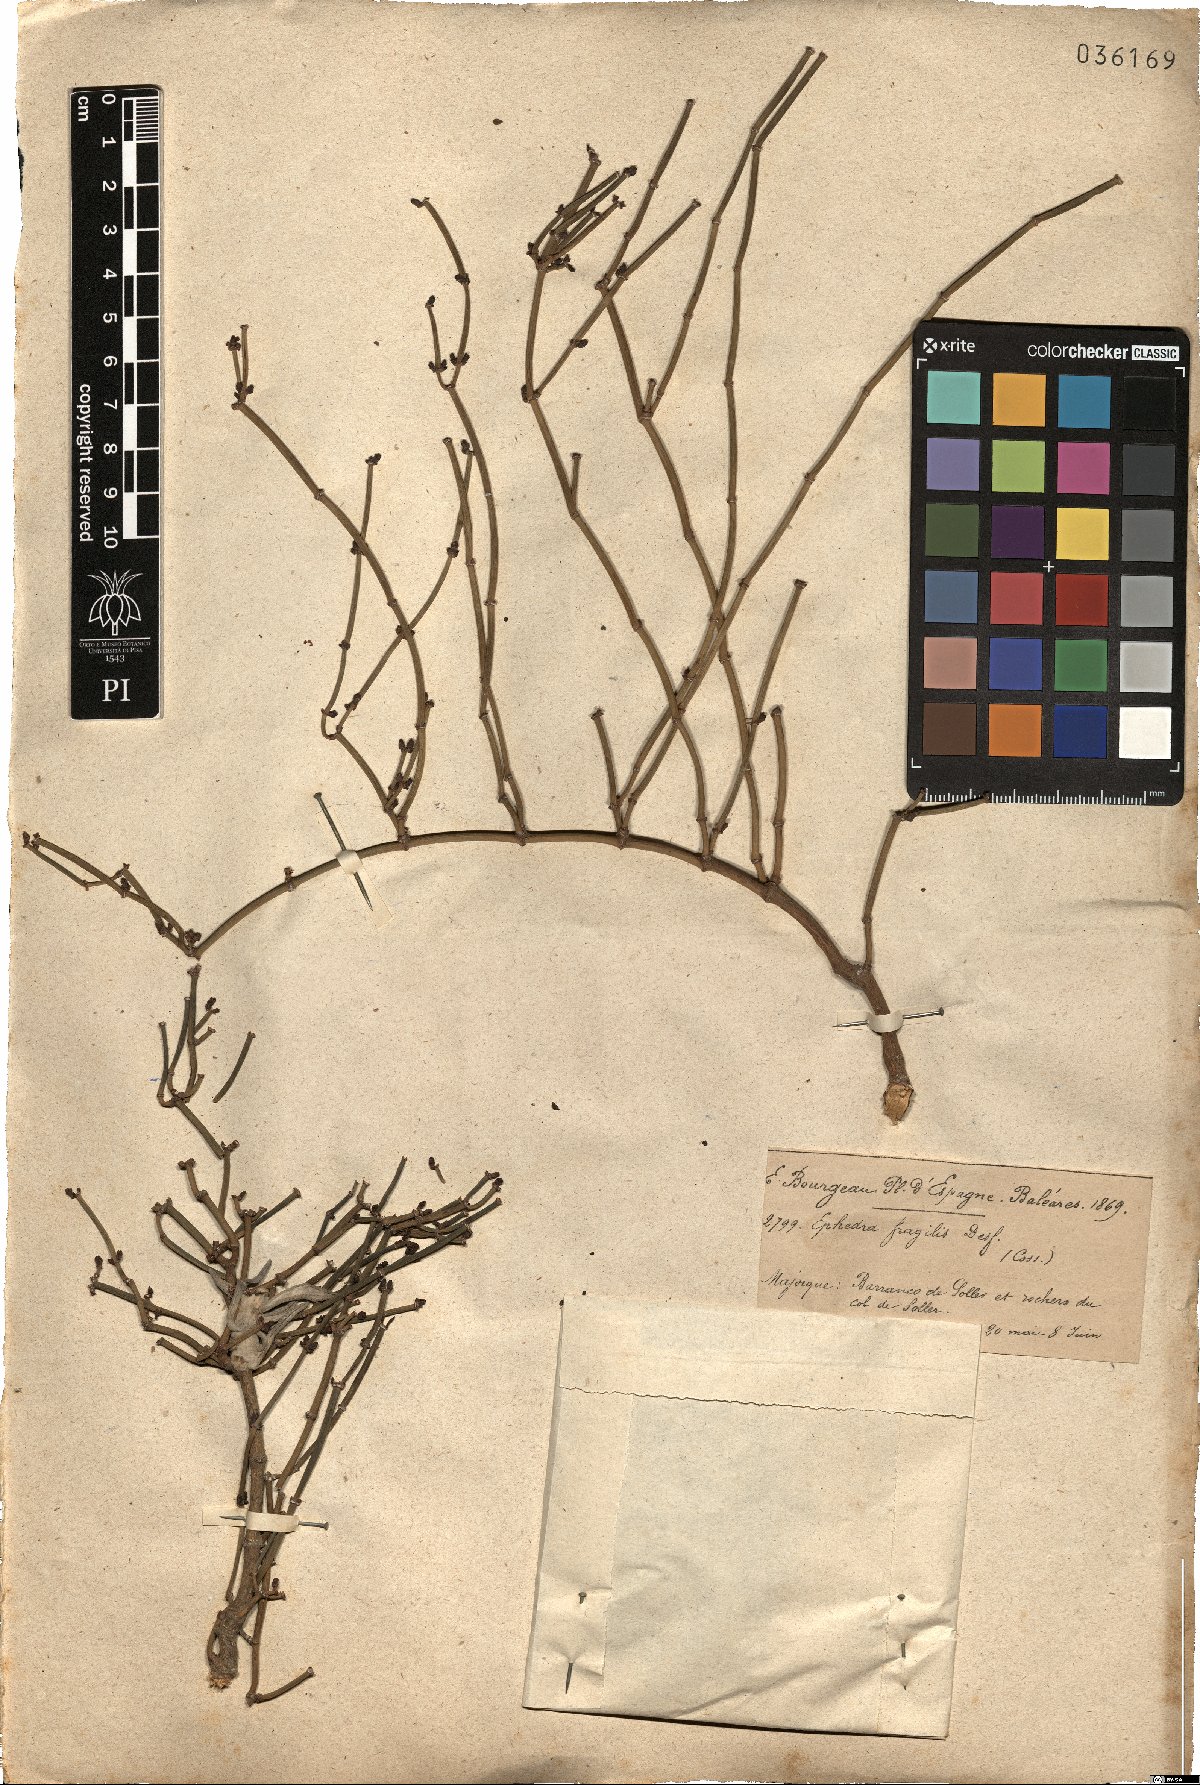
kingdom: Plantae
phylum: Tracheophyta
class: Gnetopsida
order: Ephedrales
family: Ephedraceae
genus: Ephedra
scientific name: Ephedra fragilis
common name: Joint pine
